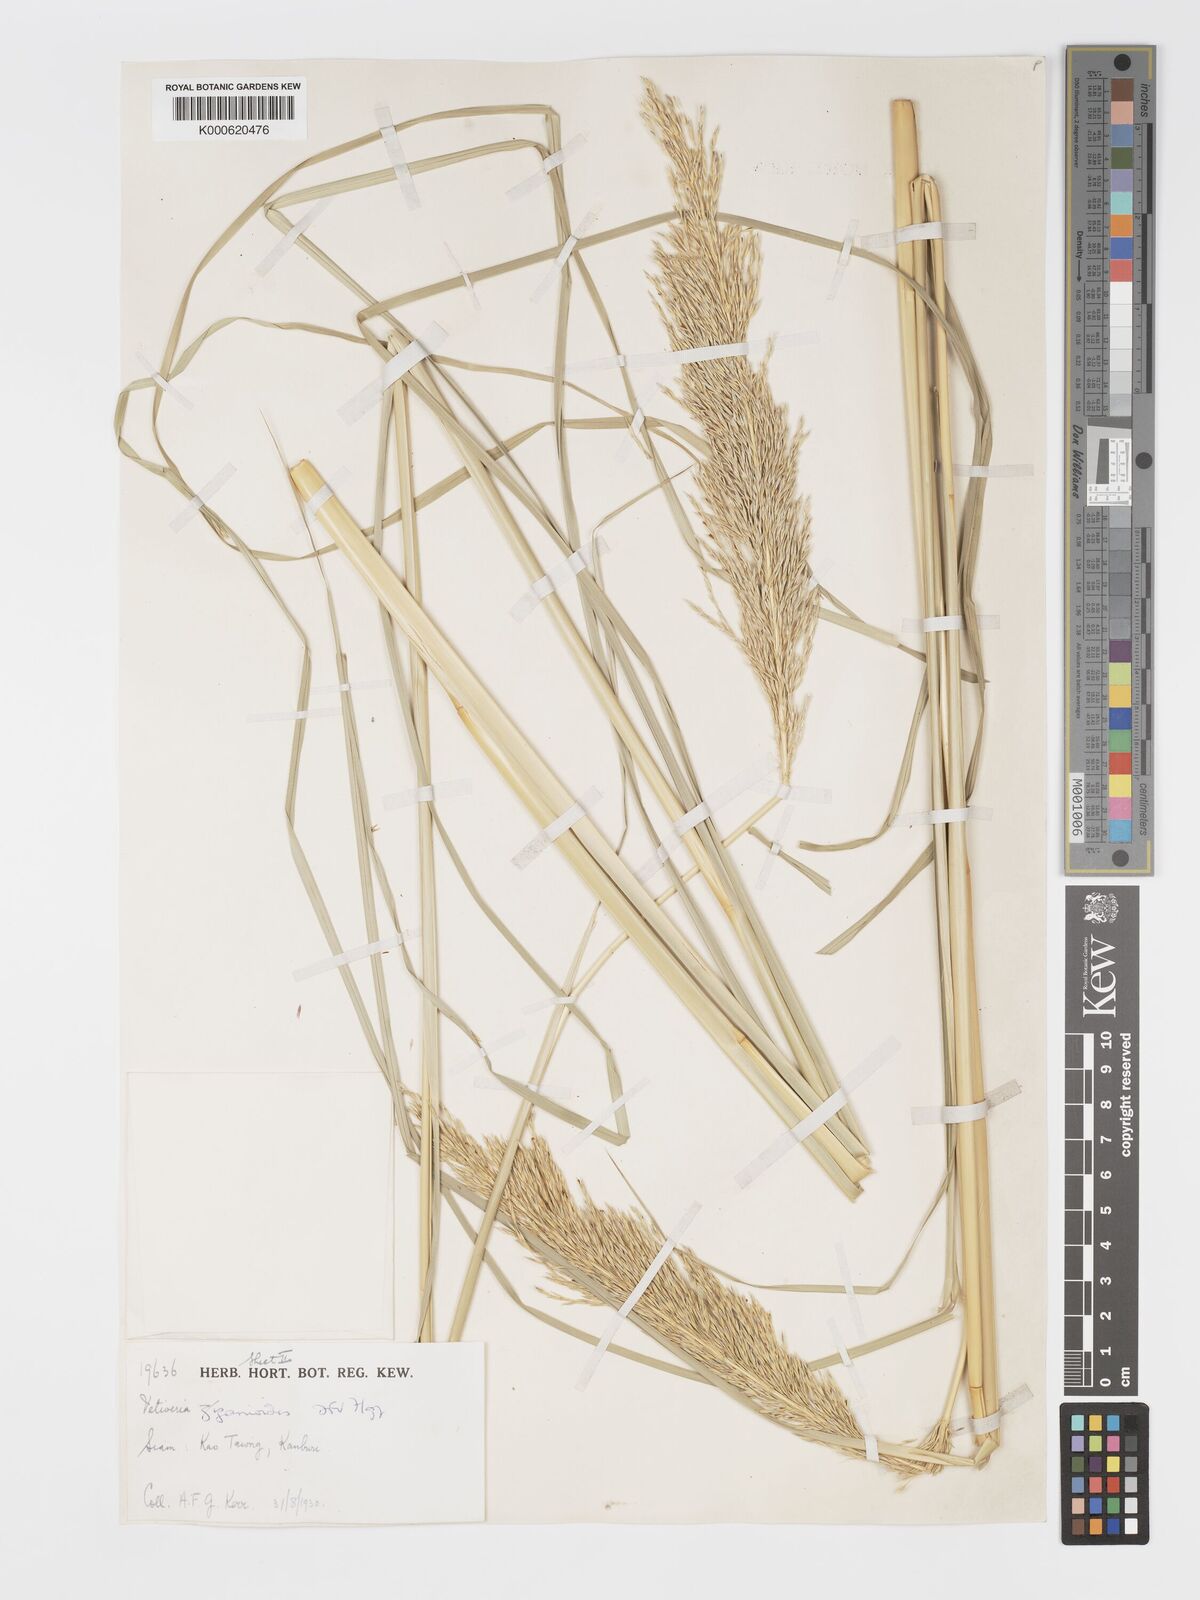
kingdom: Plantae
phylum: Tracheophyta
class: Liliopsida
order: Poales
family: Poaceae
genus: Chrysopogon
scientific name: Chrysopogon zizanioides
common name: False beardgrass
